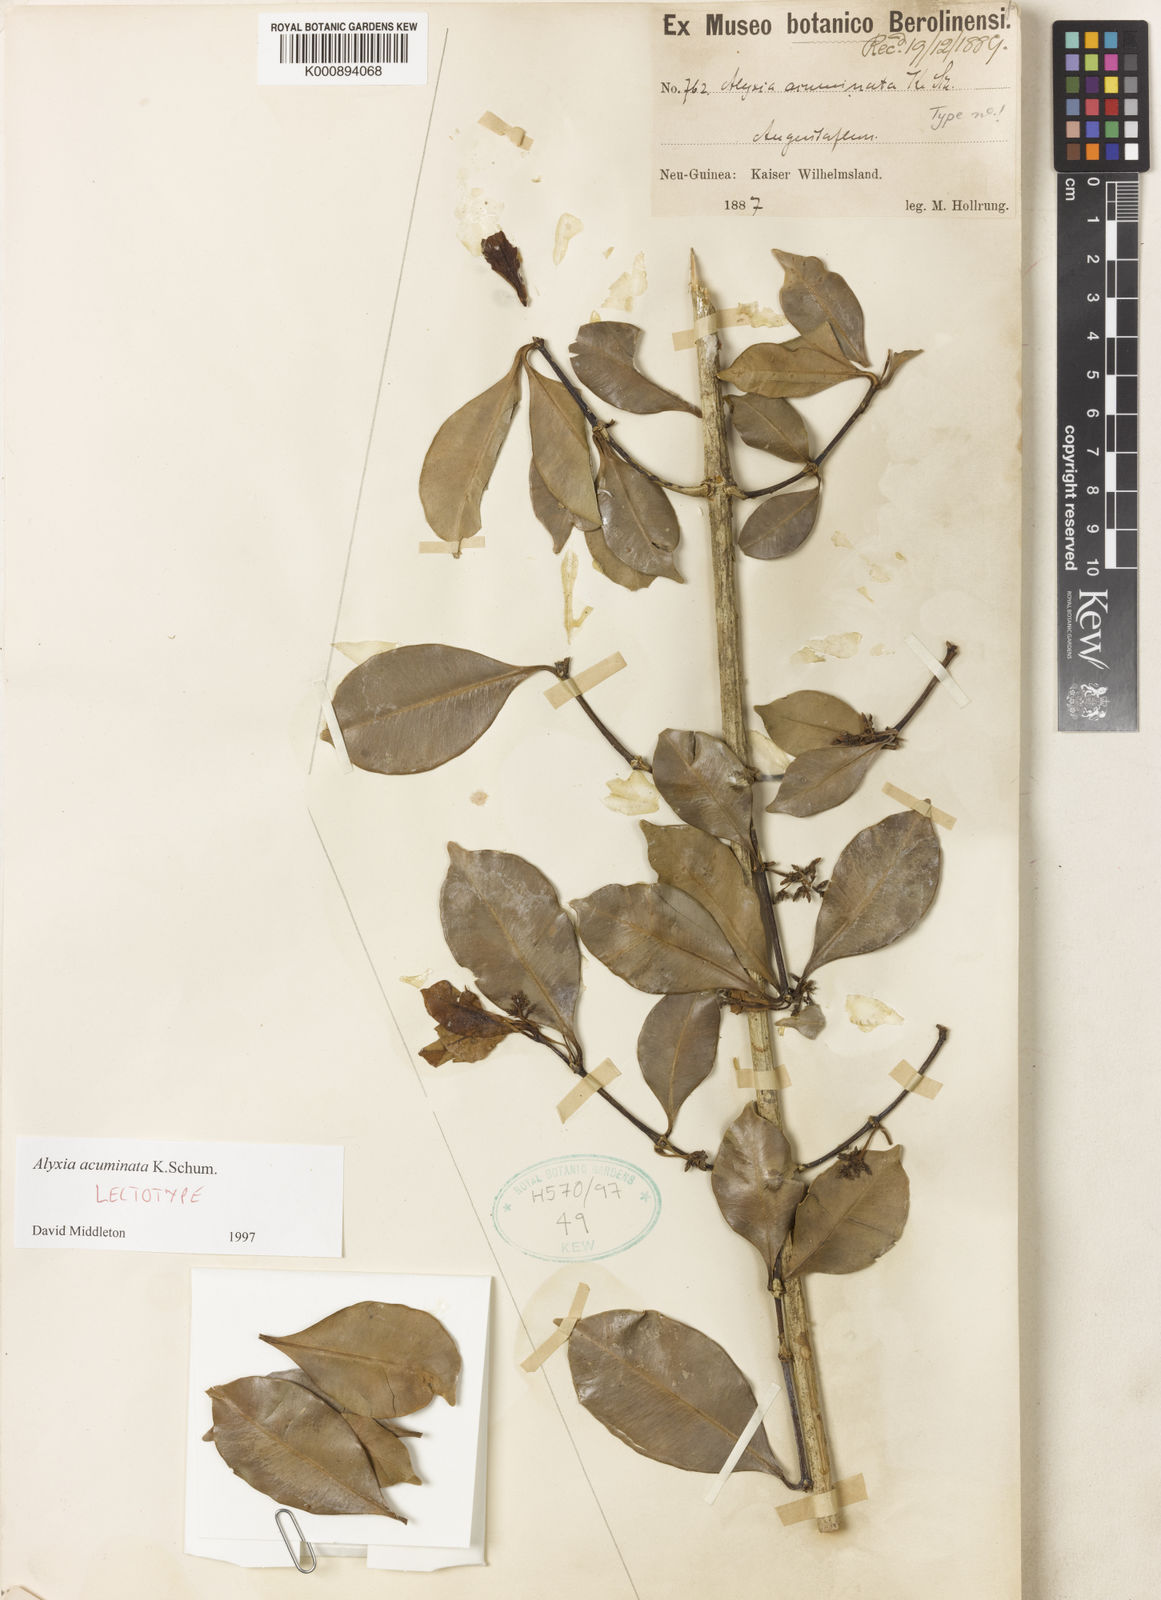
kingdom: Plantae
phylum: Tracheophyta
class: Magnoliopsida
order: Gentianales
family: Apocynaceae
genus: Alyxia
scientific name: Alyxia acuminata
